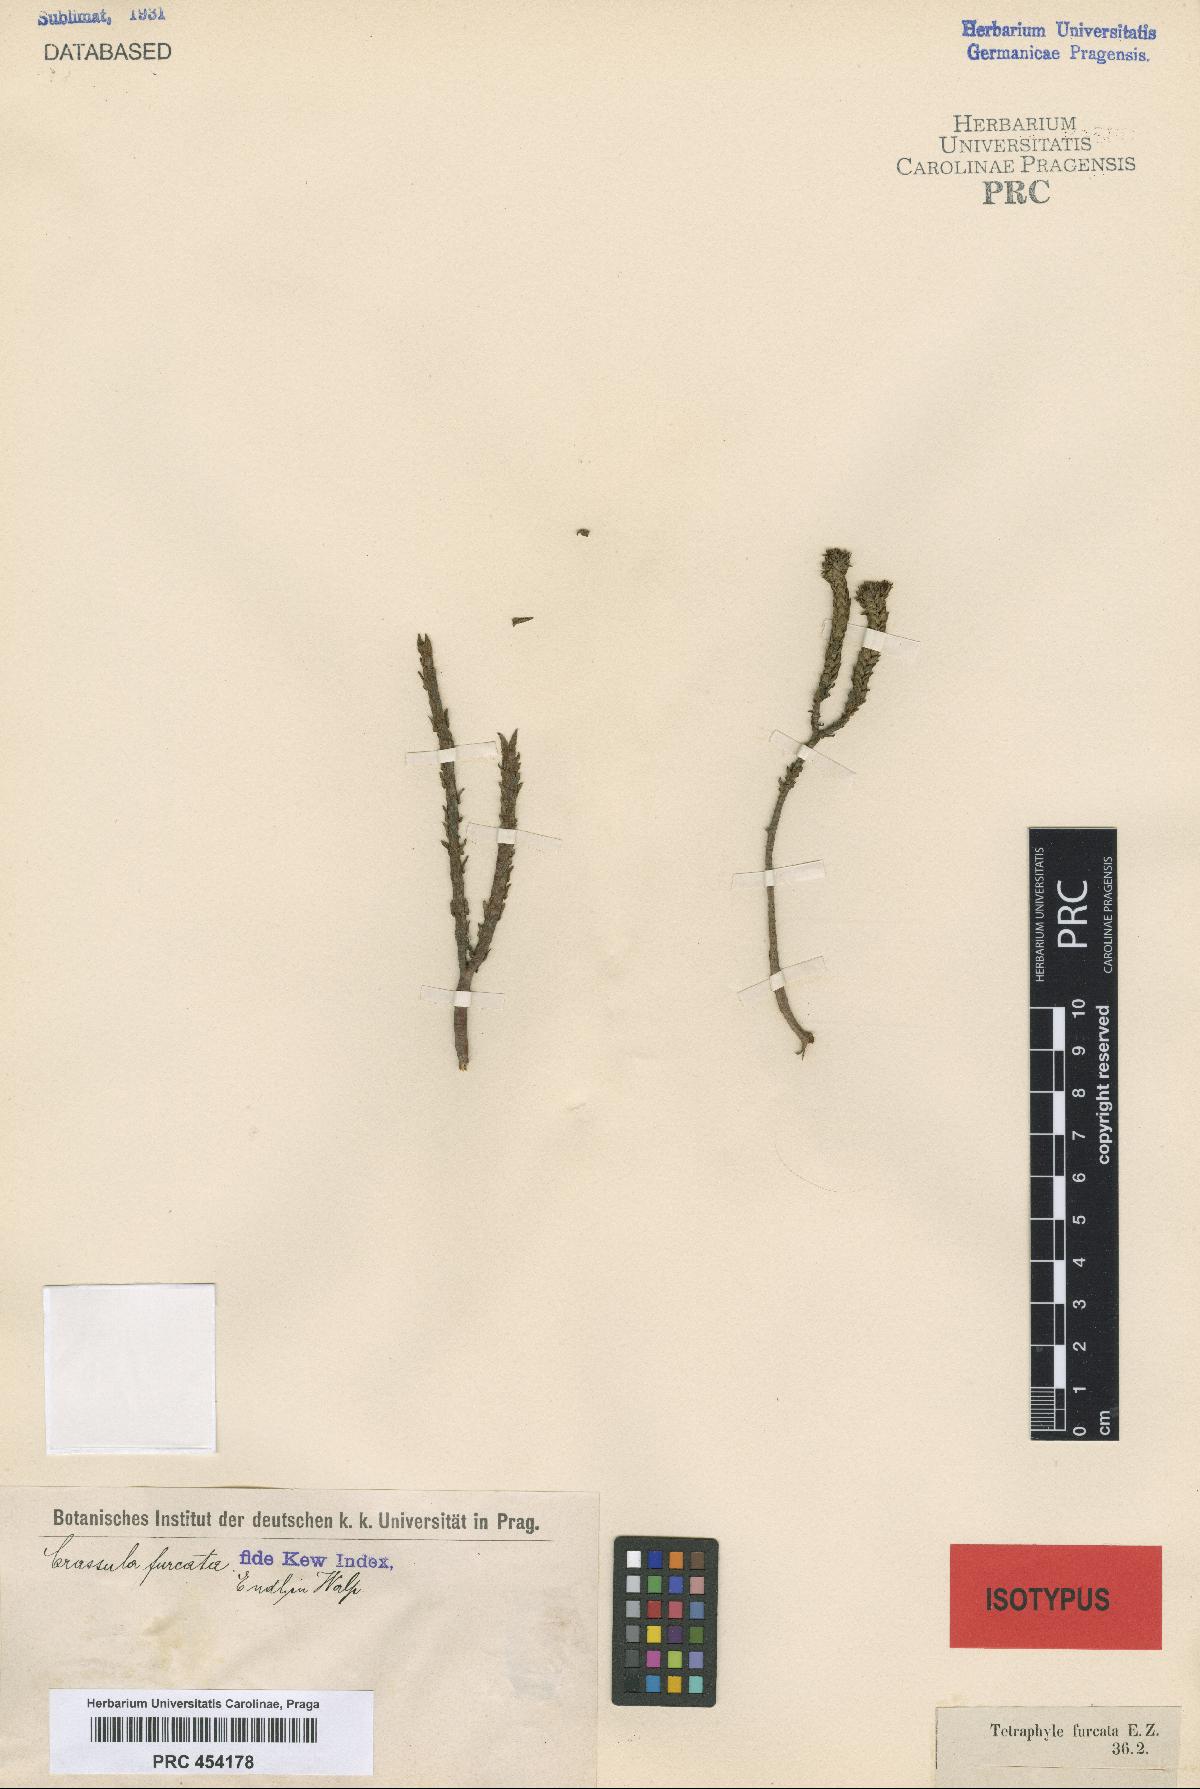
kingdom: Plantae
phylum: Tracheophyta
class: Magnoliopsida
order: Saxifragales
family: Crassulaceae
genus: Crassula
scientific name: Crassula ericoides
